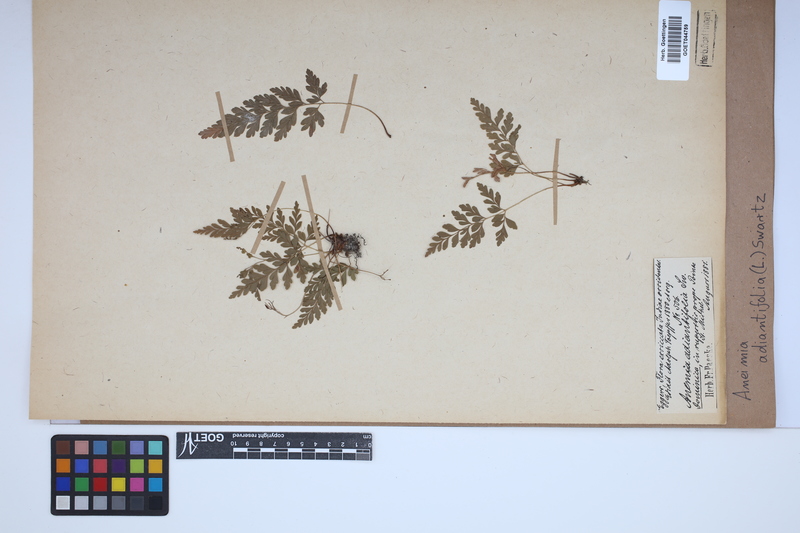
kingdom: Plantae
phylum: Tracheophyta
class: Polypodiopsida
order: Schizaeales
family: Anemiaceae
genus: Anemia
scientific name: Anemia adiantifolia
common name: Pine fern
